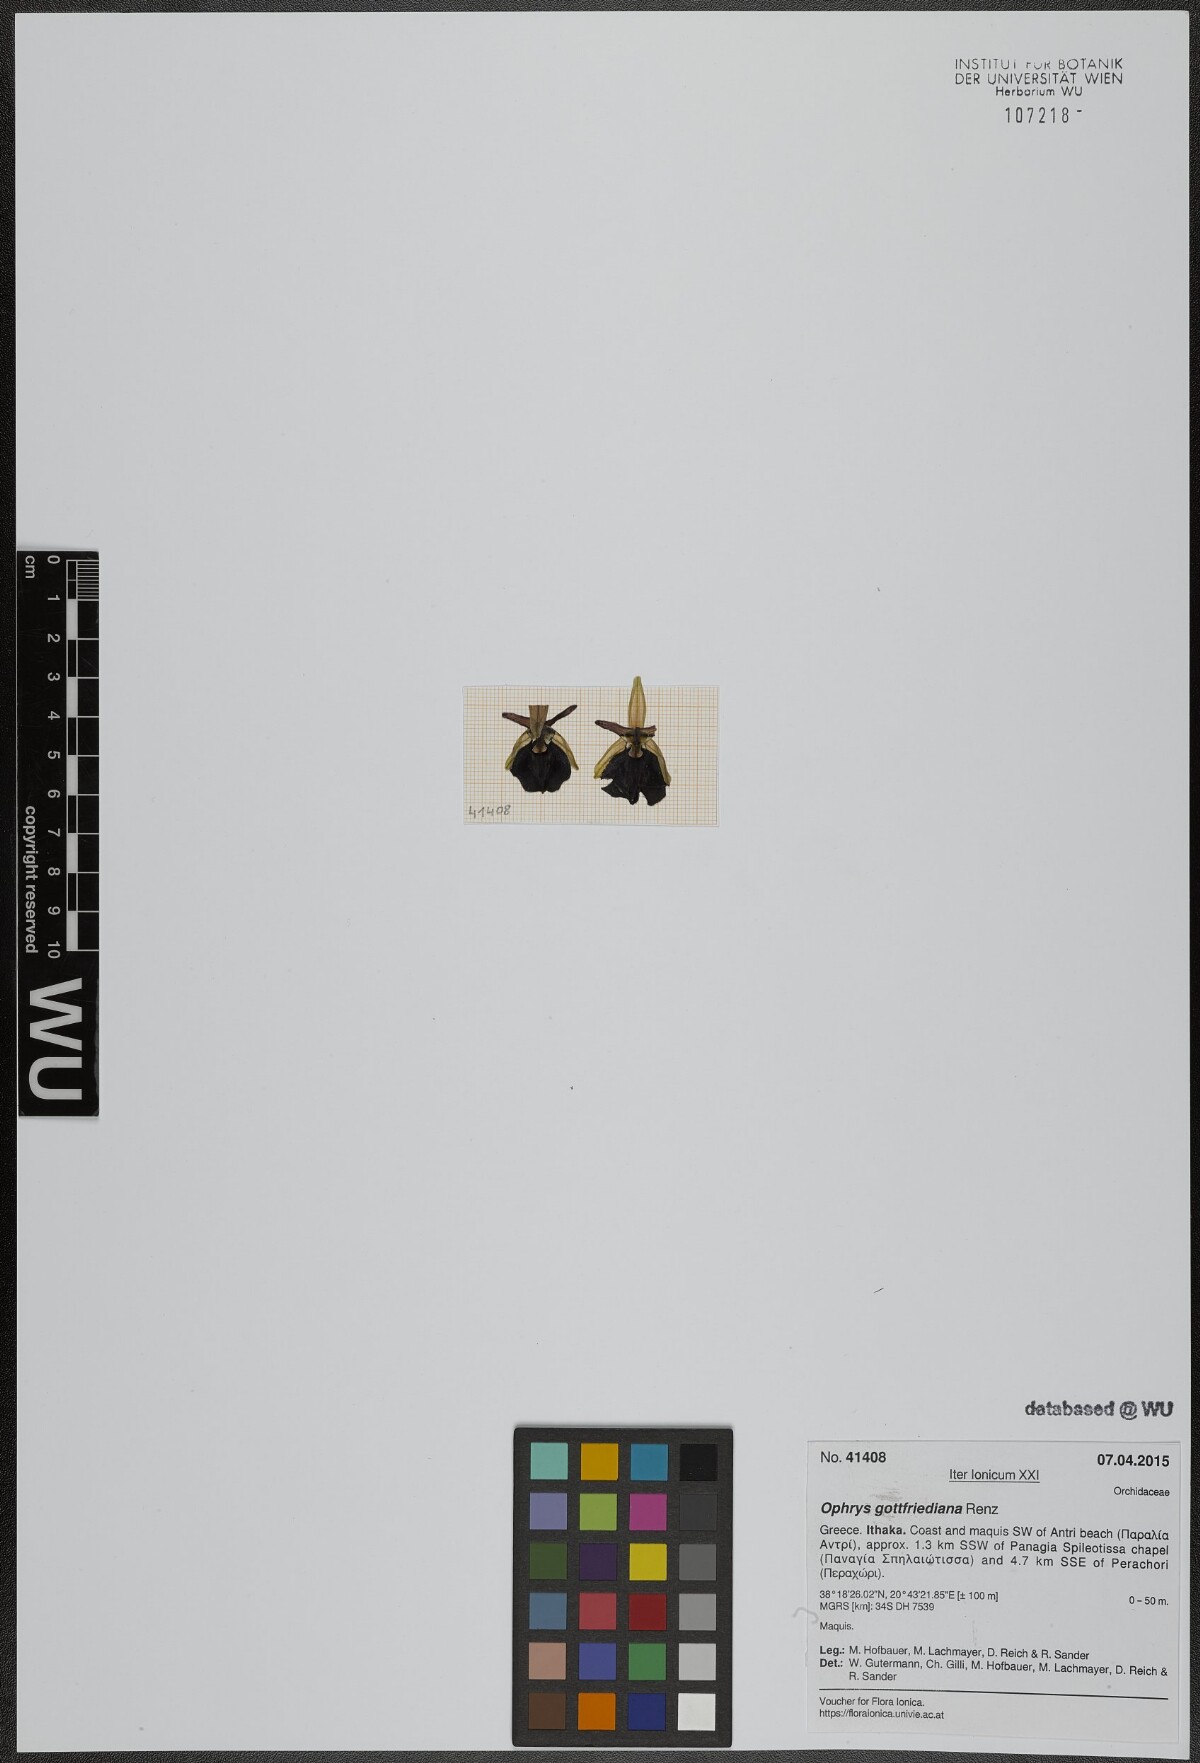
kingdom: Plantae
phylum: Tracheophyta
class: Liliopsida
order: Asparagales
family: Orchidaceae
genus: Ophrys
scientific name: Ophrys ferrum-equinum
